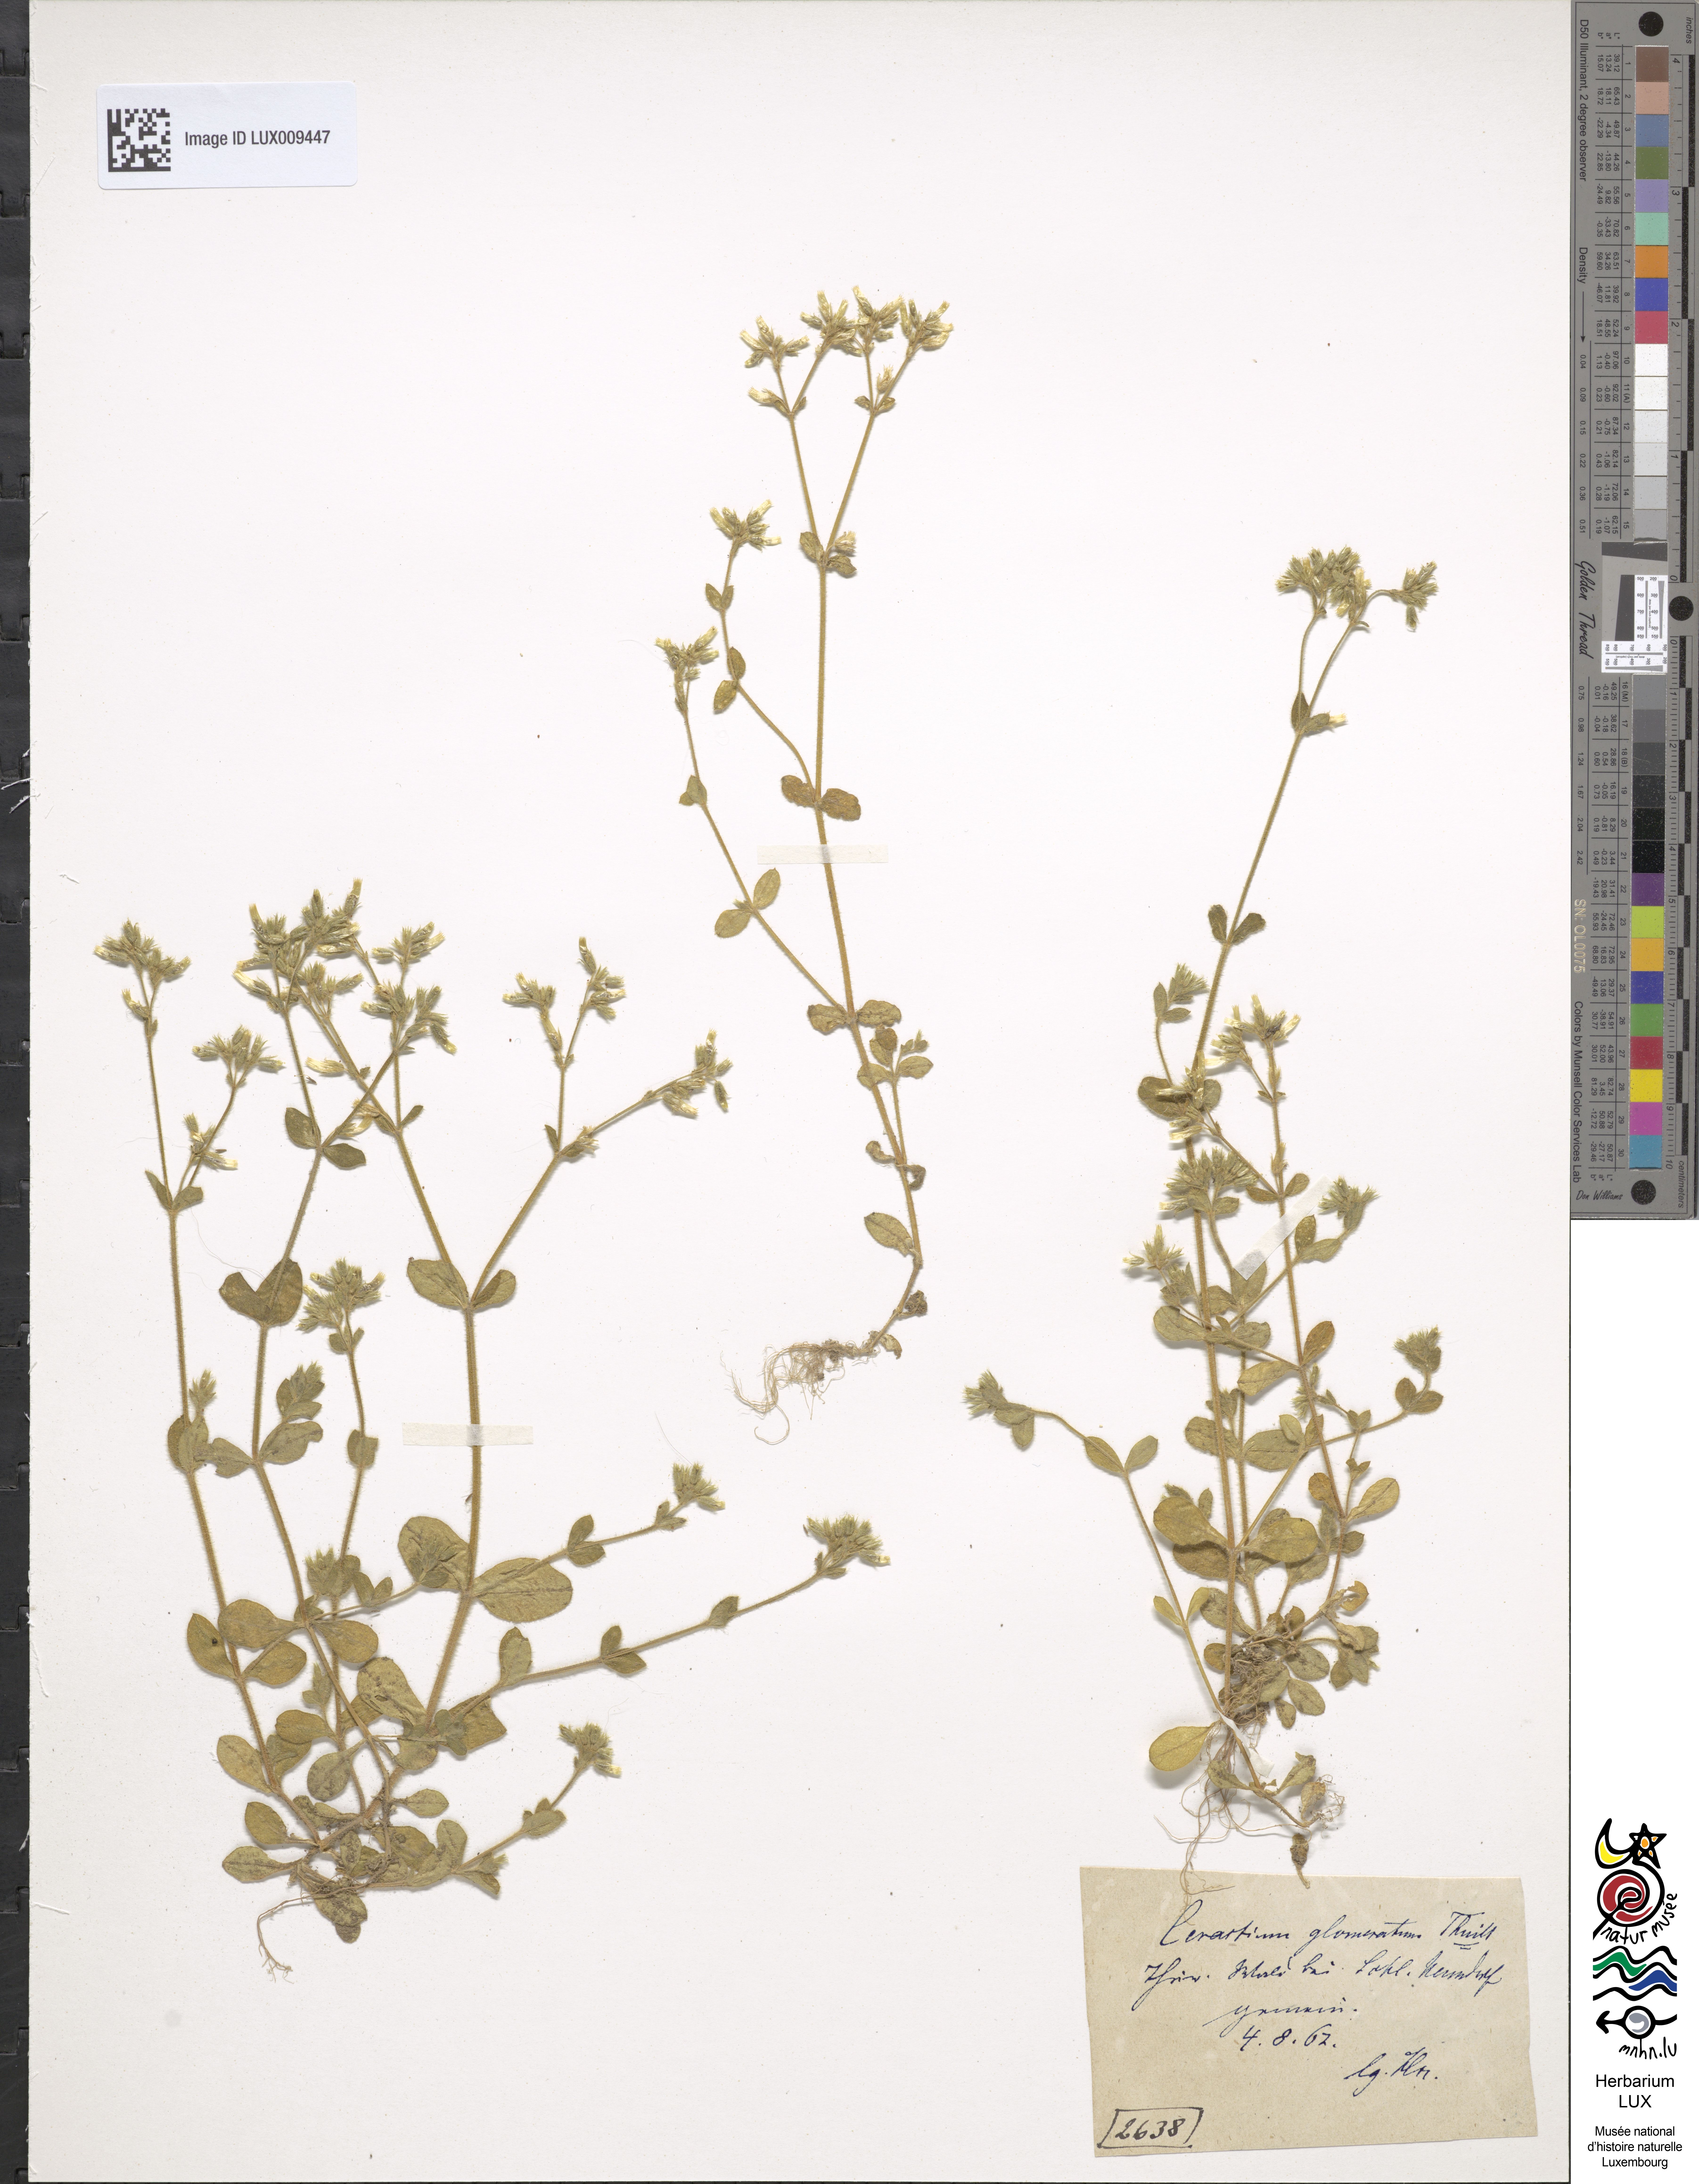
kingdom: Plantae
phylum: Tracheophyta
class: Magnoliopsida
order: Caryophyllales
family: Caryophyllaceae
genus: Cerastium
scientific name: Cerastium glomeratum
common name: Sticky chickweed
